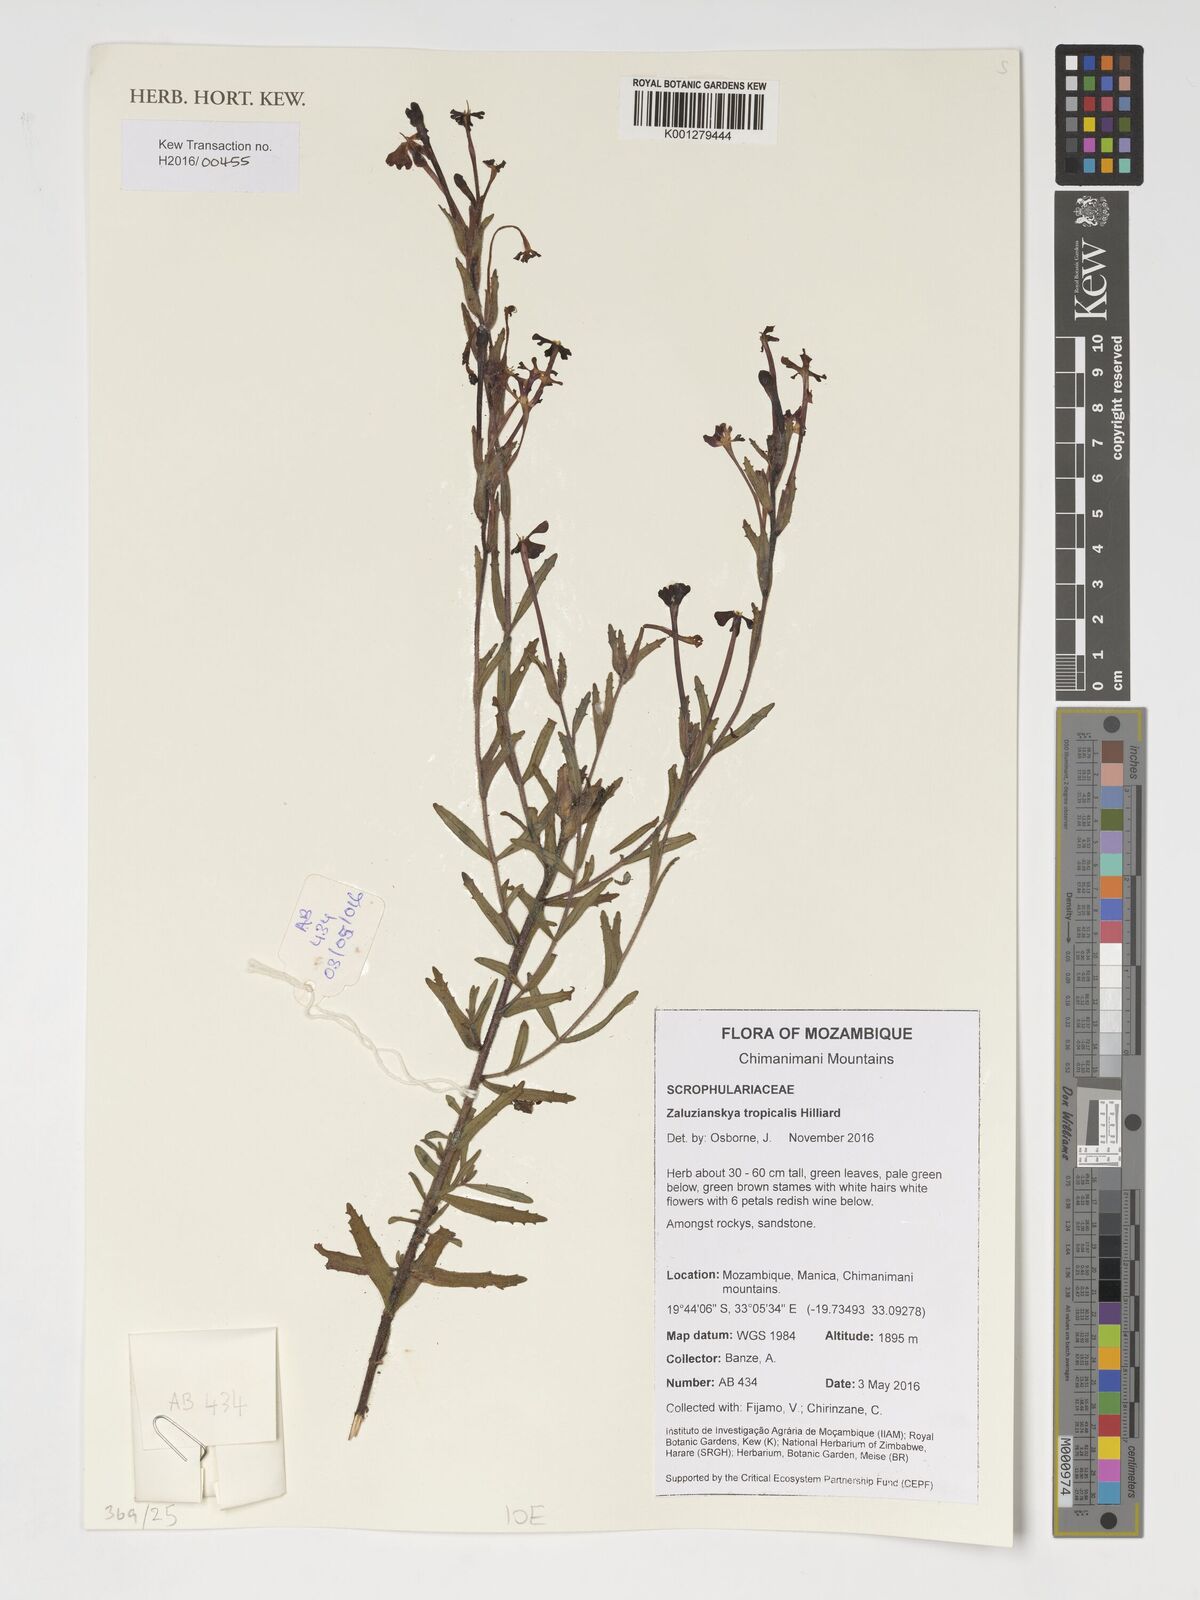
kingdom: Plantae
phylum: Tracheophyta
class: Magnoliopsida
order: Lamiales
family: Scrophulariaceae
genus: Zaluzianskya
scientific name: Zaluzianskya tropicalis
